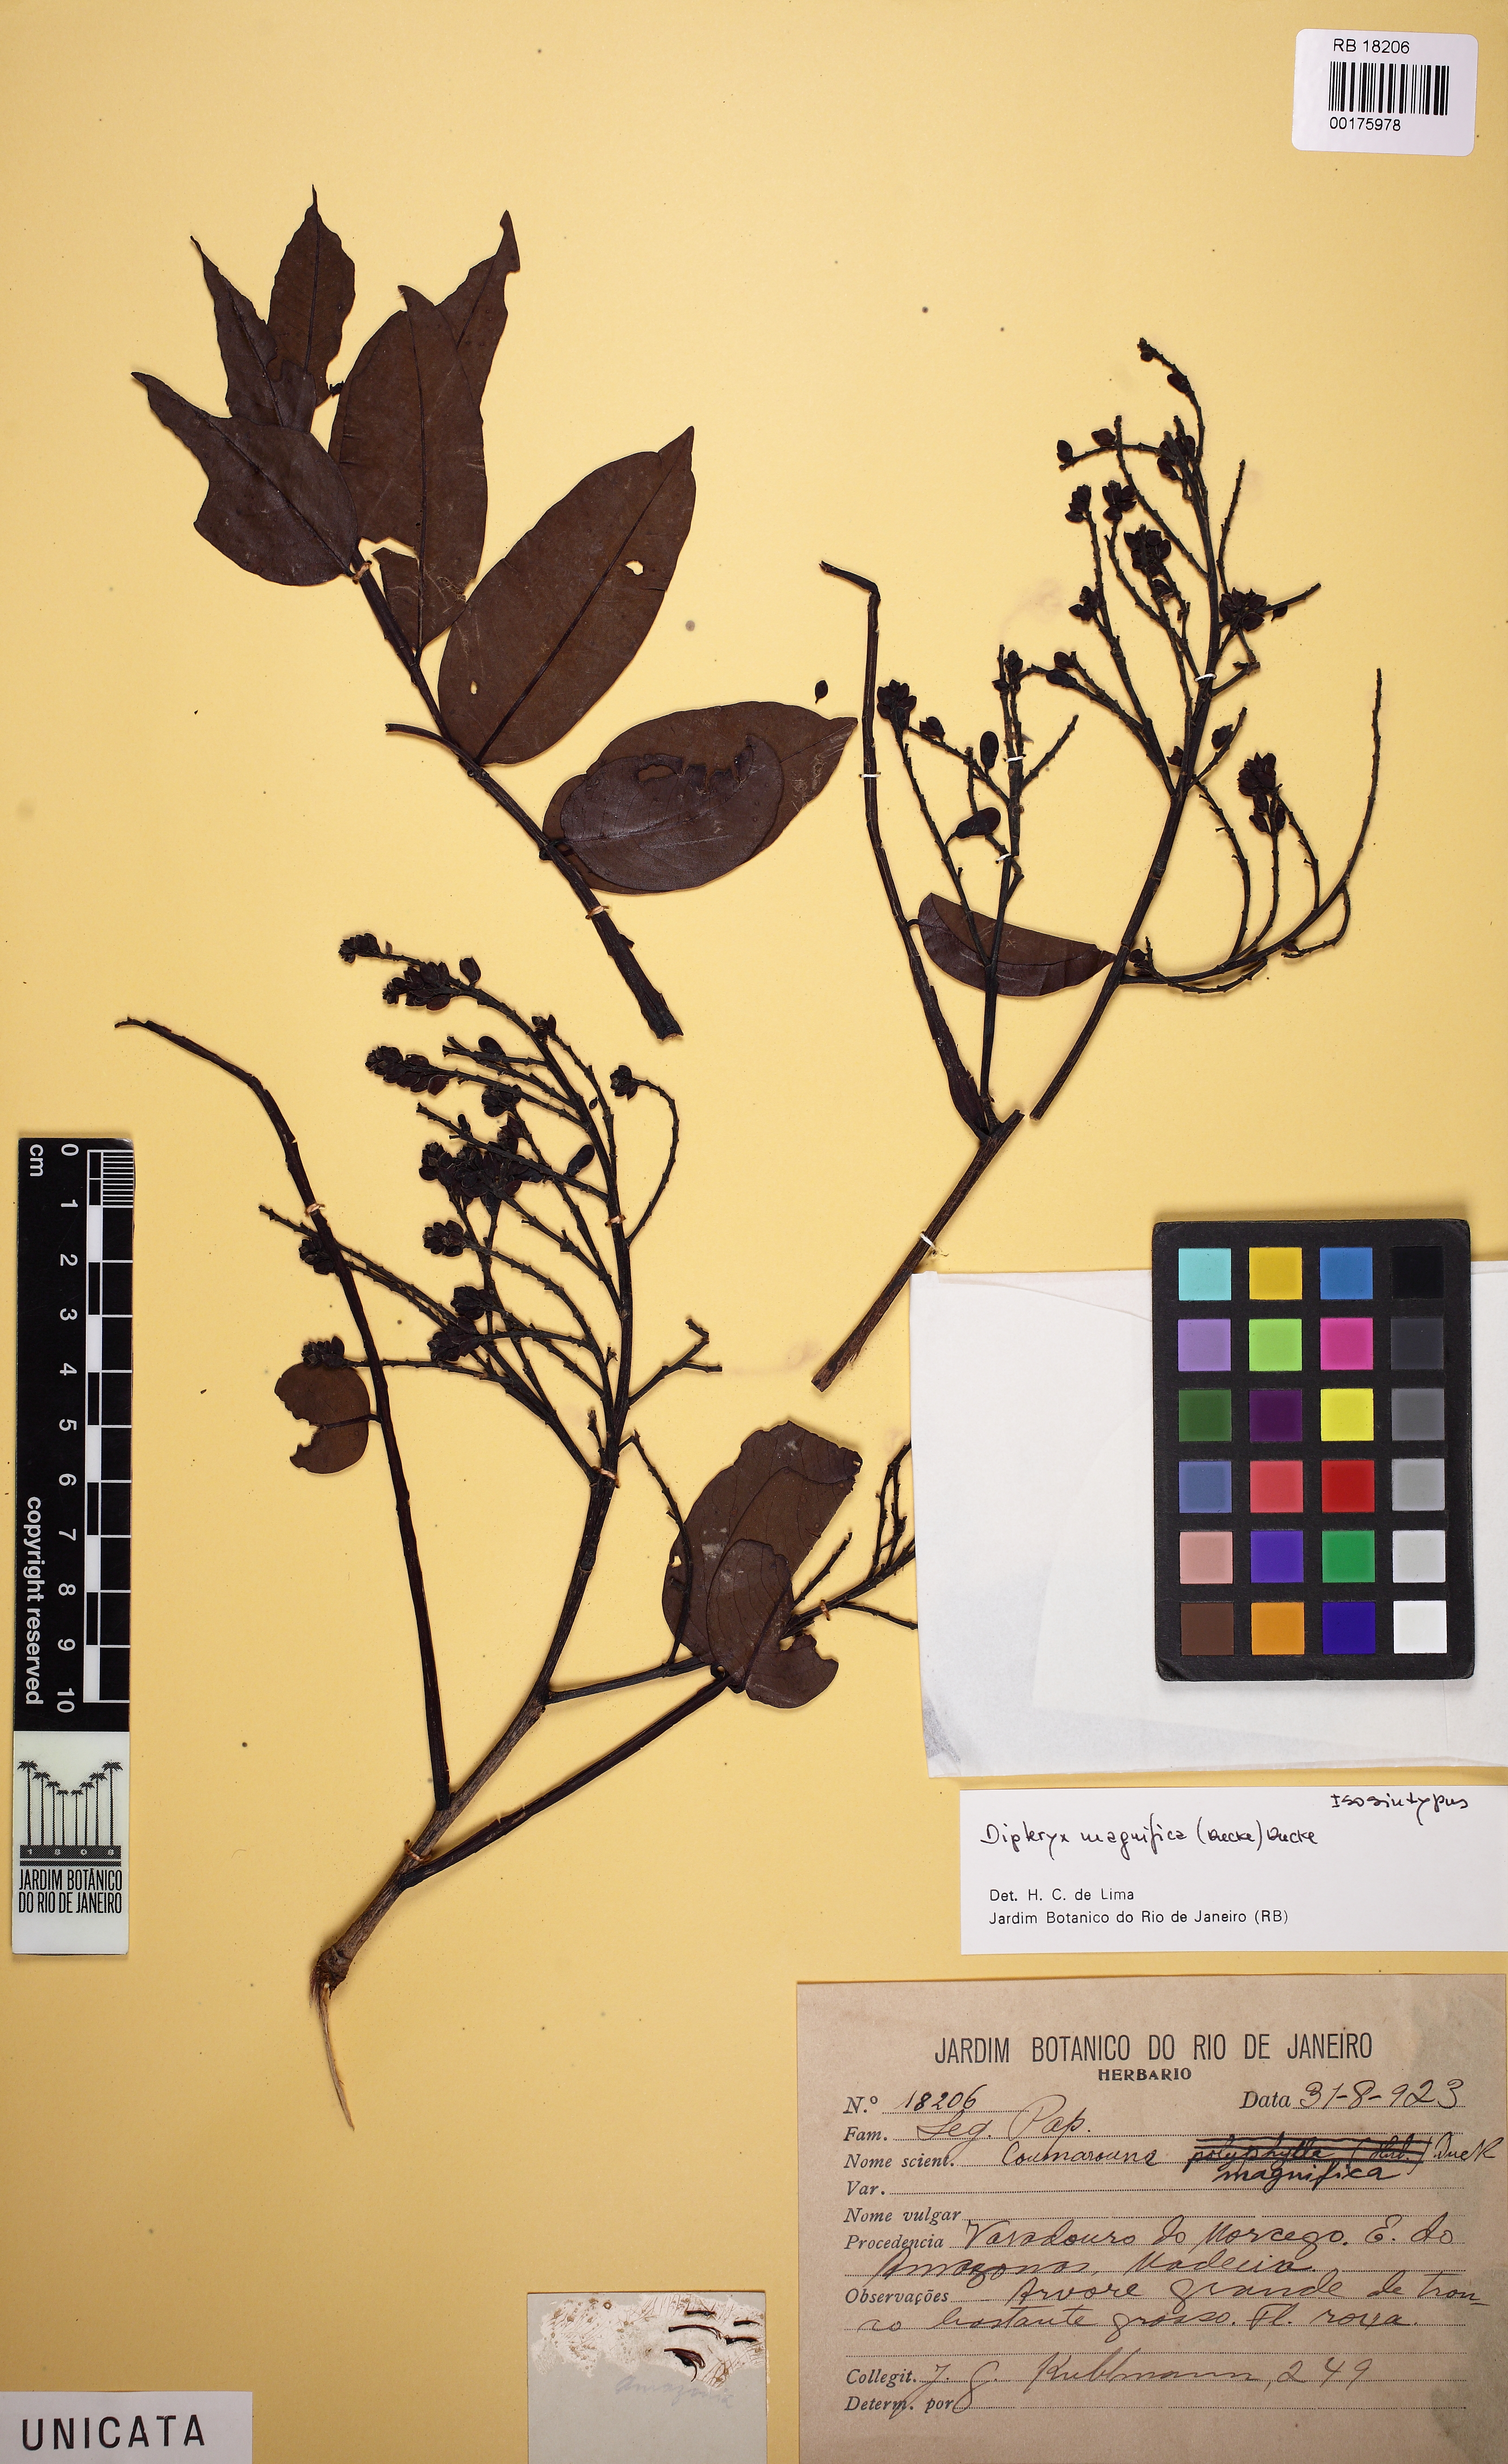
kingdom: Plantae
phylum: Tracheophyta
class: Magnoliopsida
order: Fabales
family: Fabaceae
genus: Dipteryx
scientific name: Dipteryx magnifica
